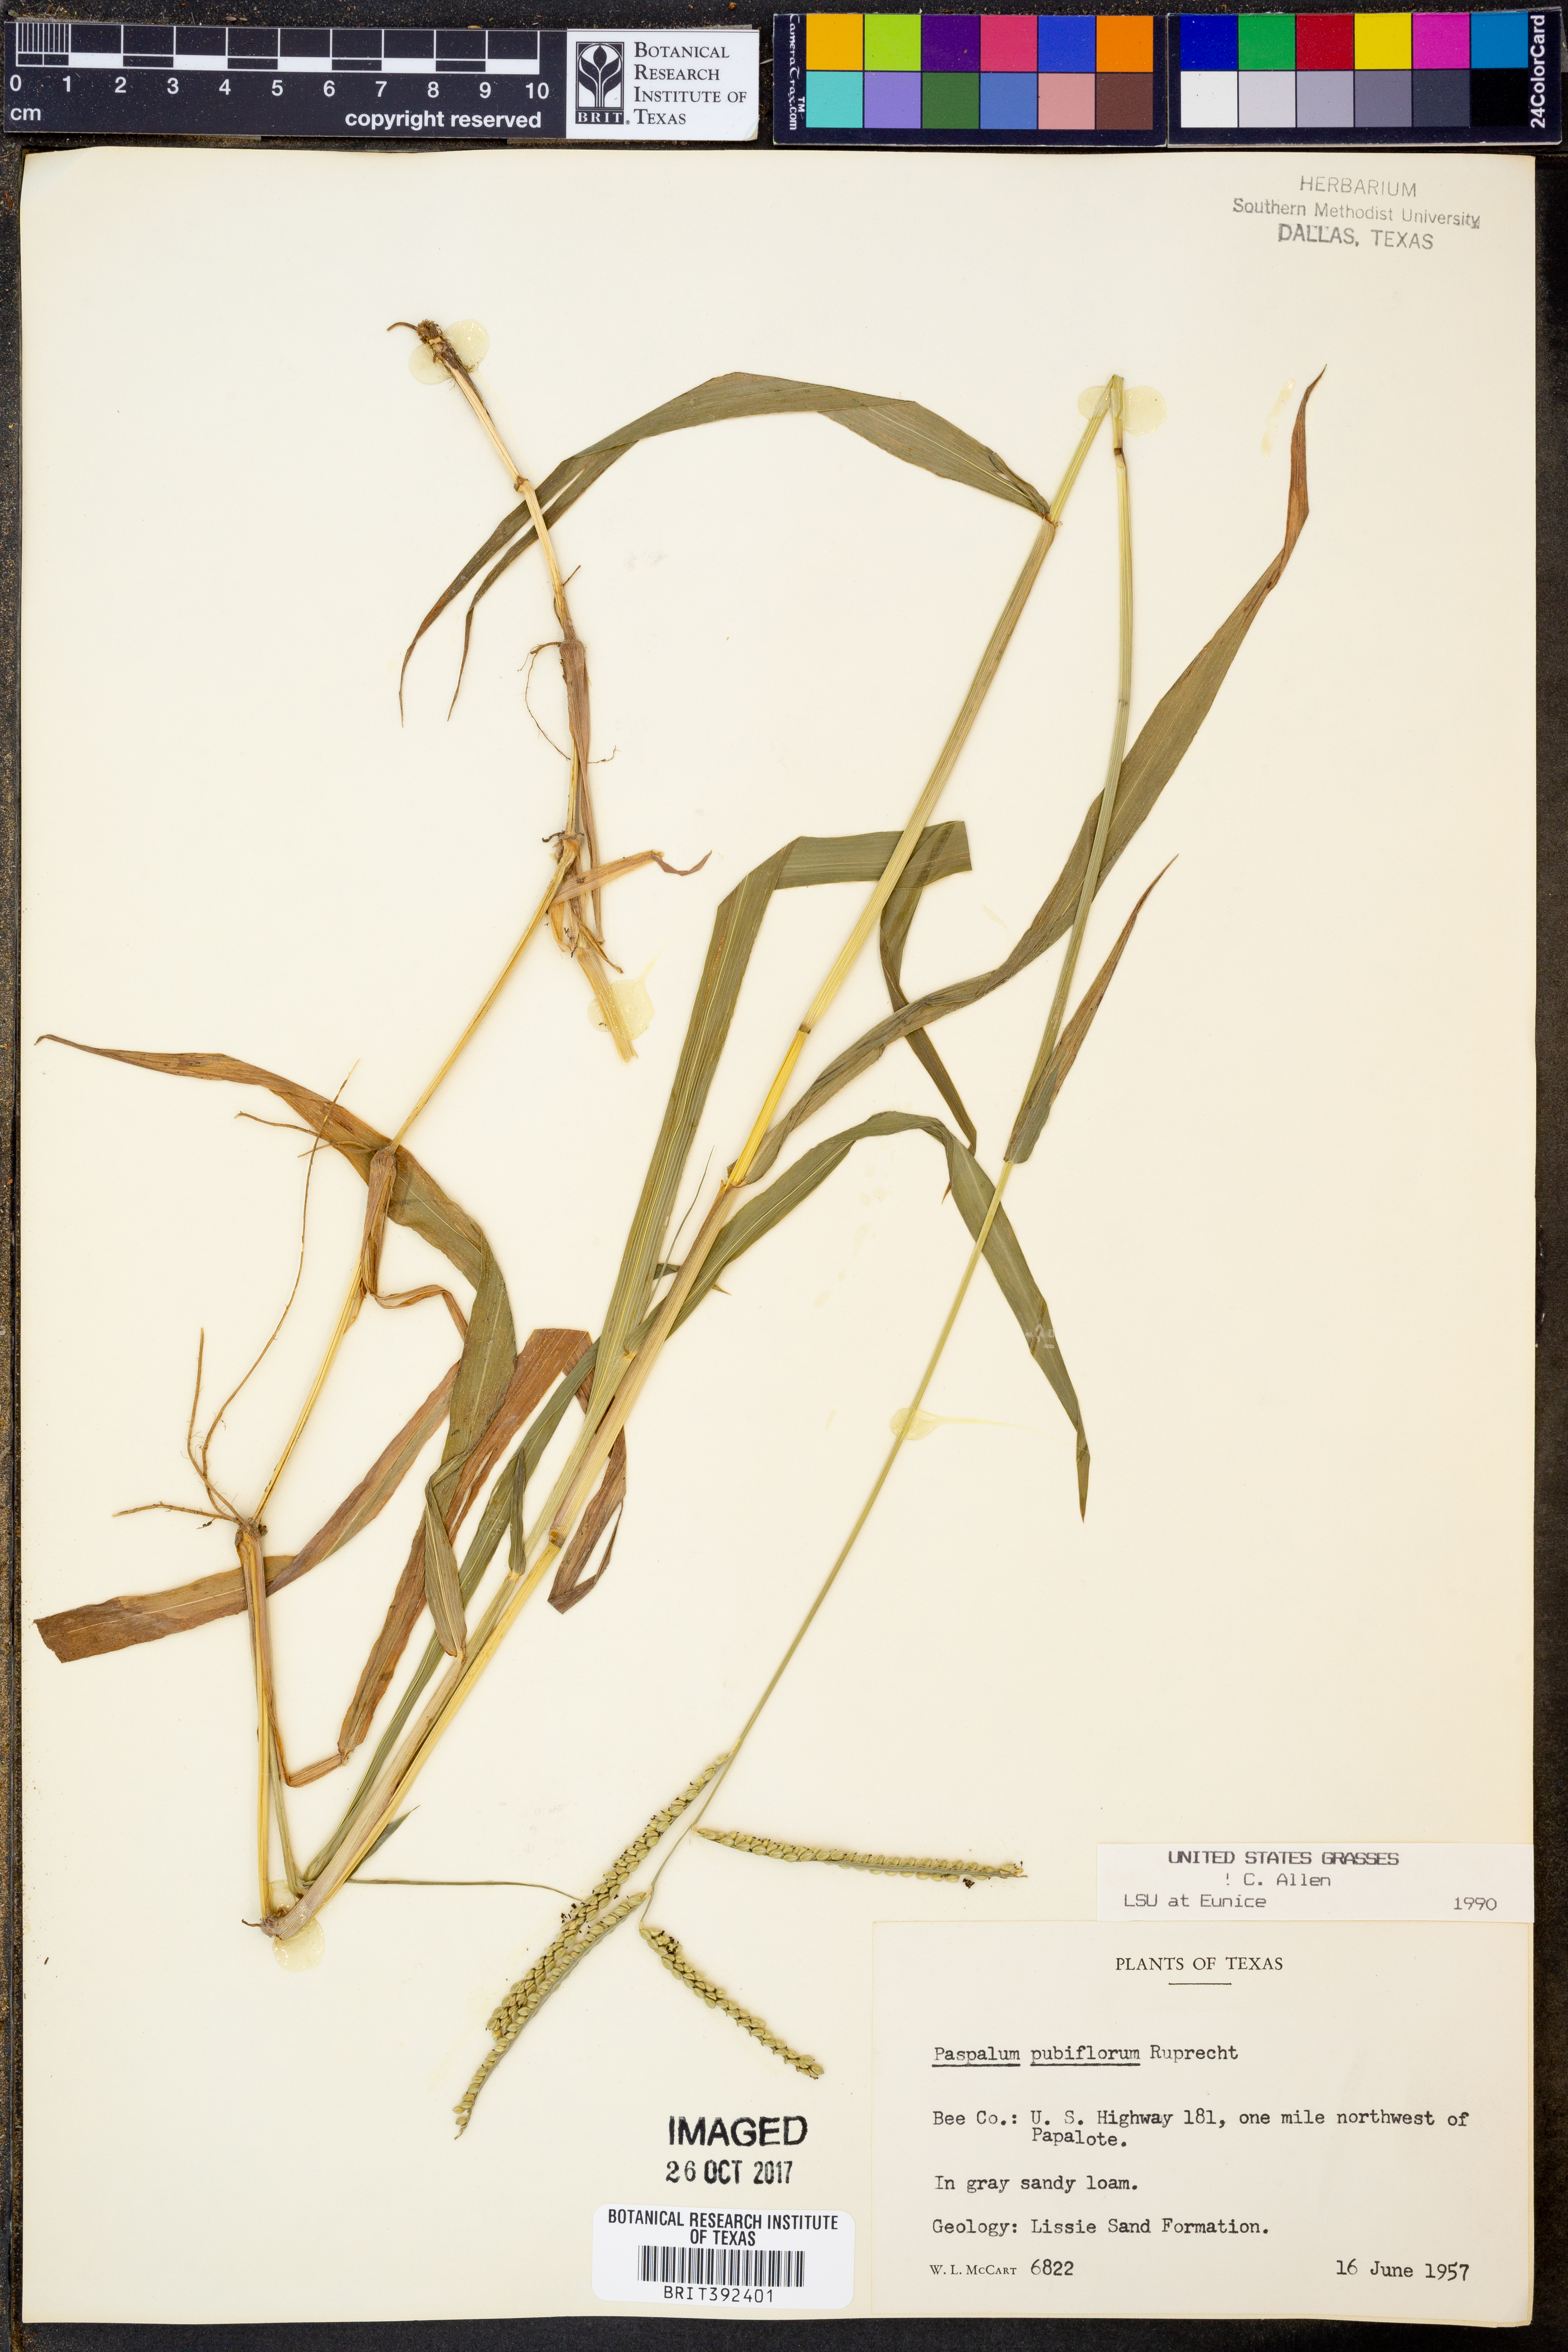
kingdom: Plantae
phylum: Tracheophyta
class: Liliopsida
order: Poales
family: Poaceae
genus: Paspalum
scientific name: Paspalum pubiflorum
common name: Hairy-seed paspalum
